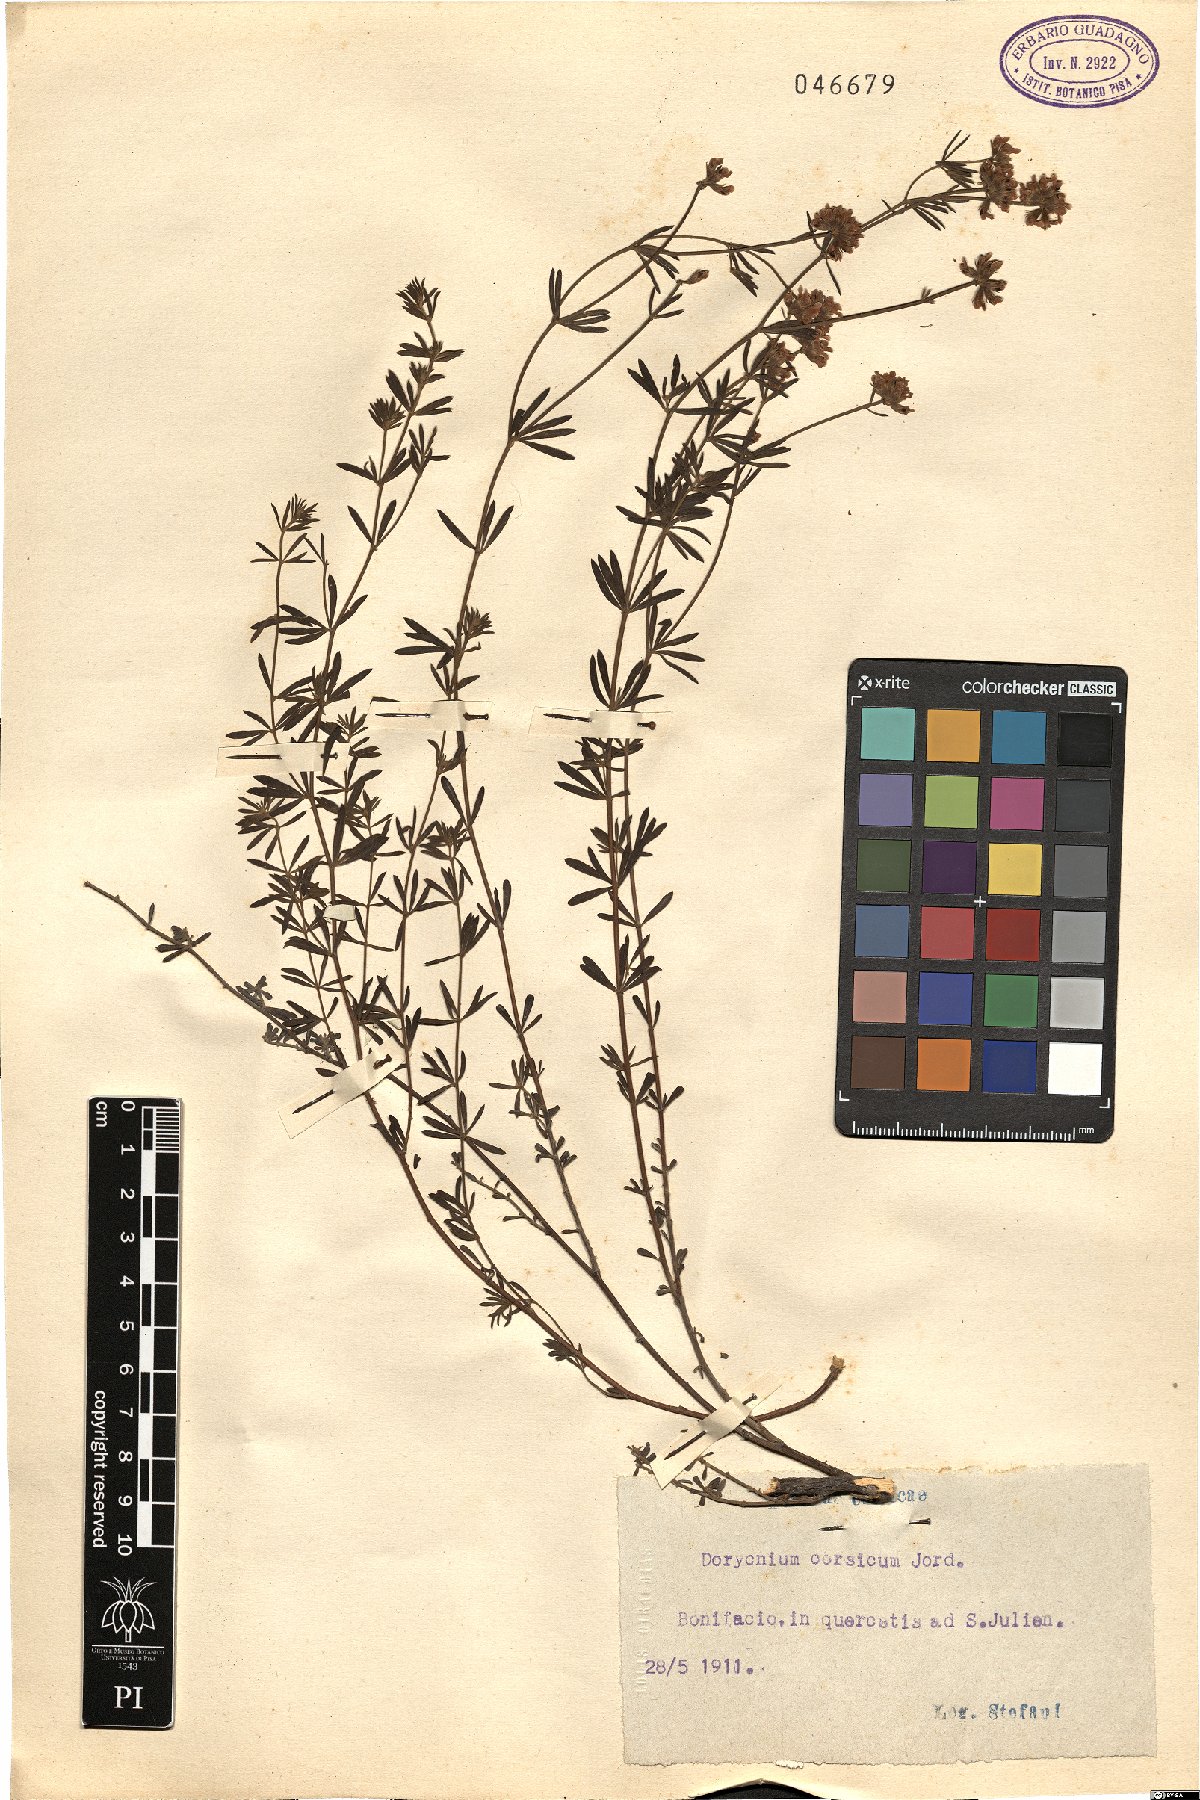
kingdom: Plantae
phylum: Tracheophyta
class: Magnoliopsida
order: Fabales
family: Fabaceae
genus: Lotus
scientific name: Lotus Dorycnium corsicum
